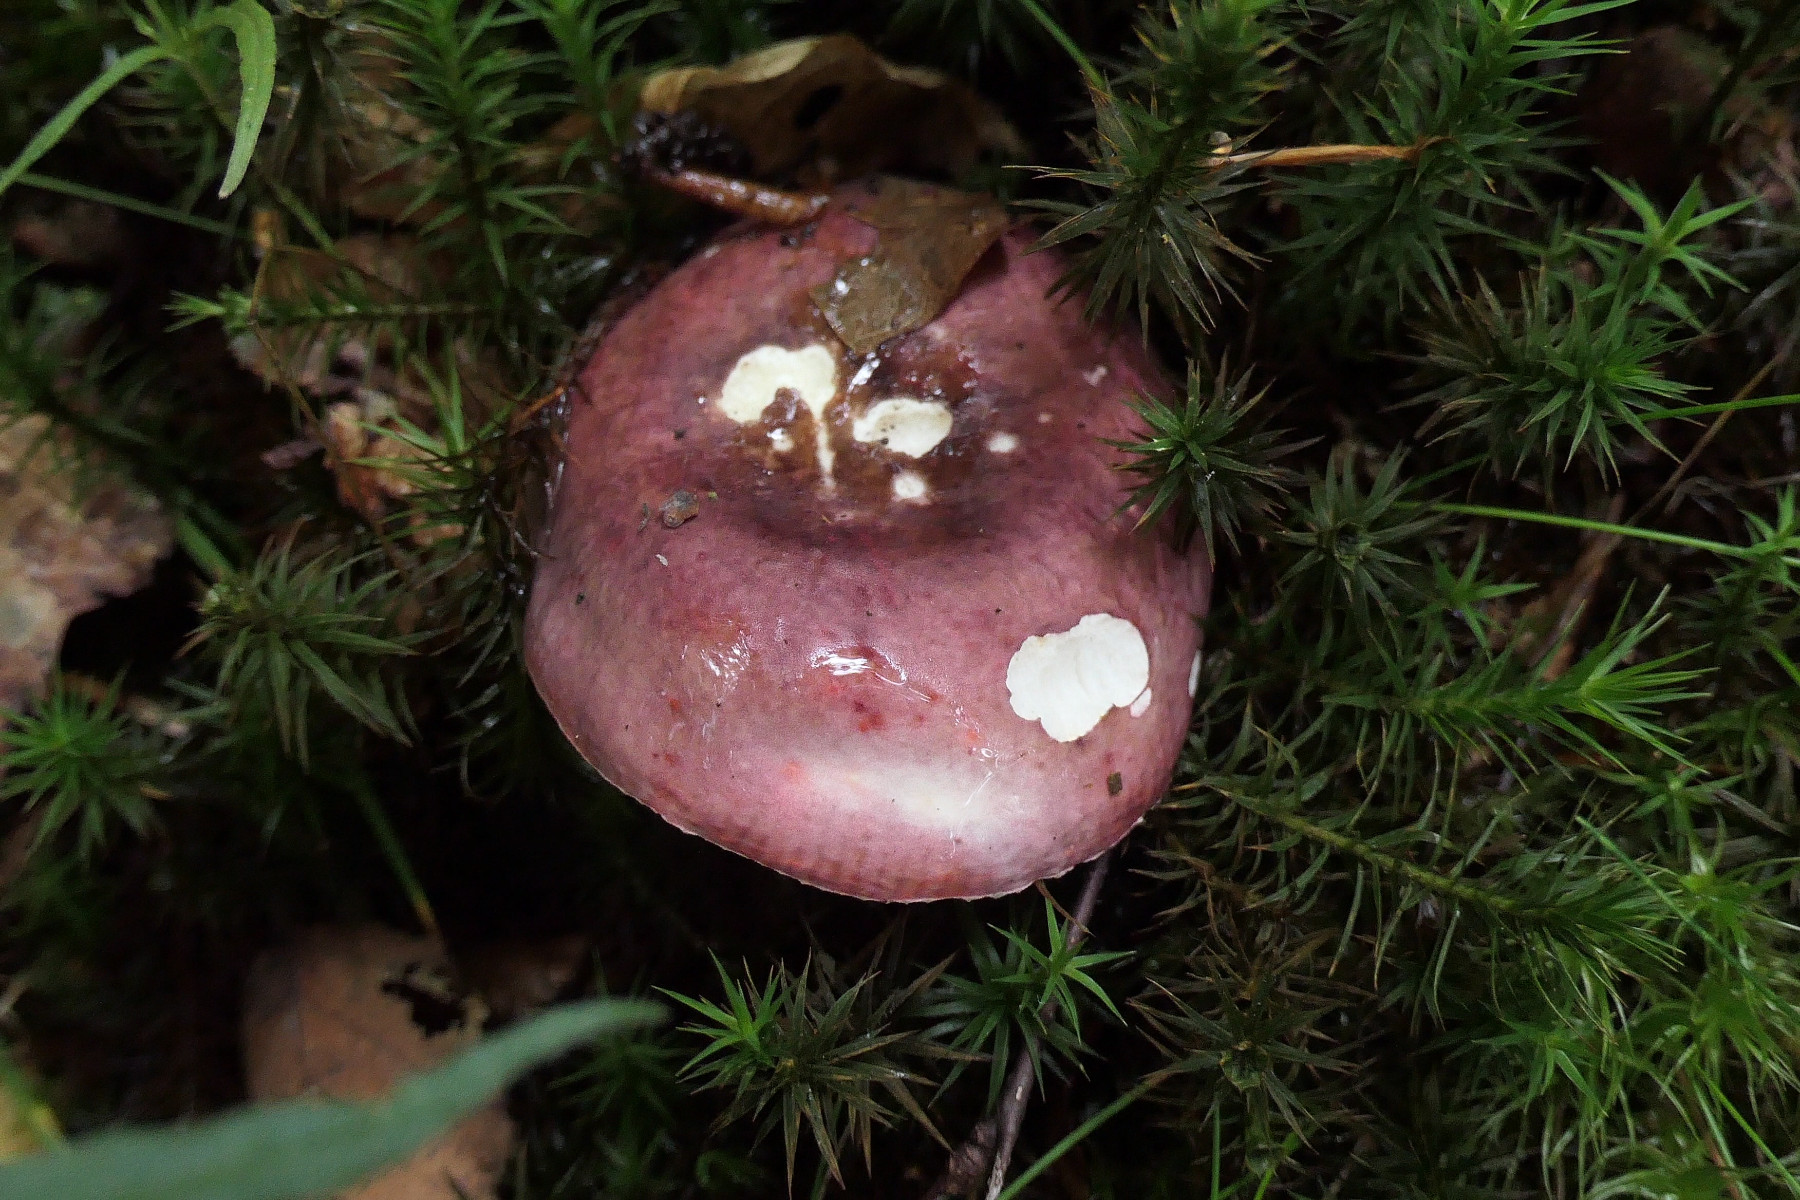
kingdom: Fungi
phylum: Basidiomycota
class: Agaricomycetes
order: Russulales
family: Russulaceae
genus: Russula
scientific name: Russula brunneoviolacea
